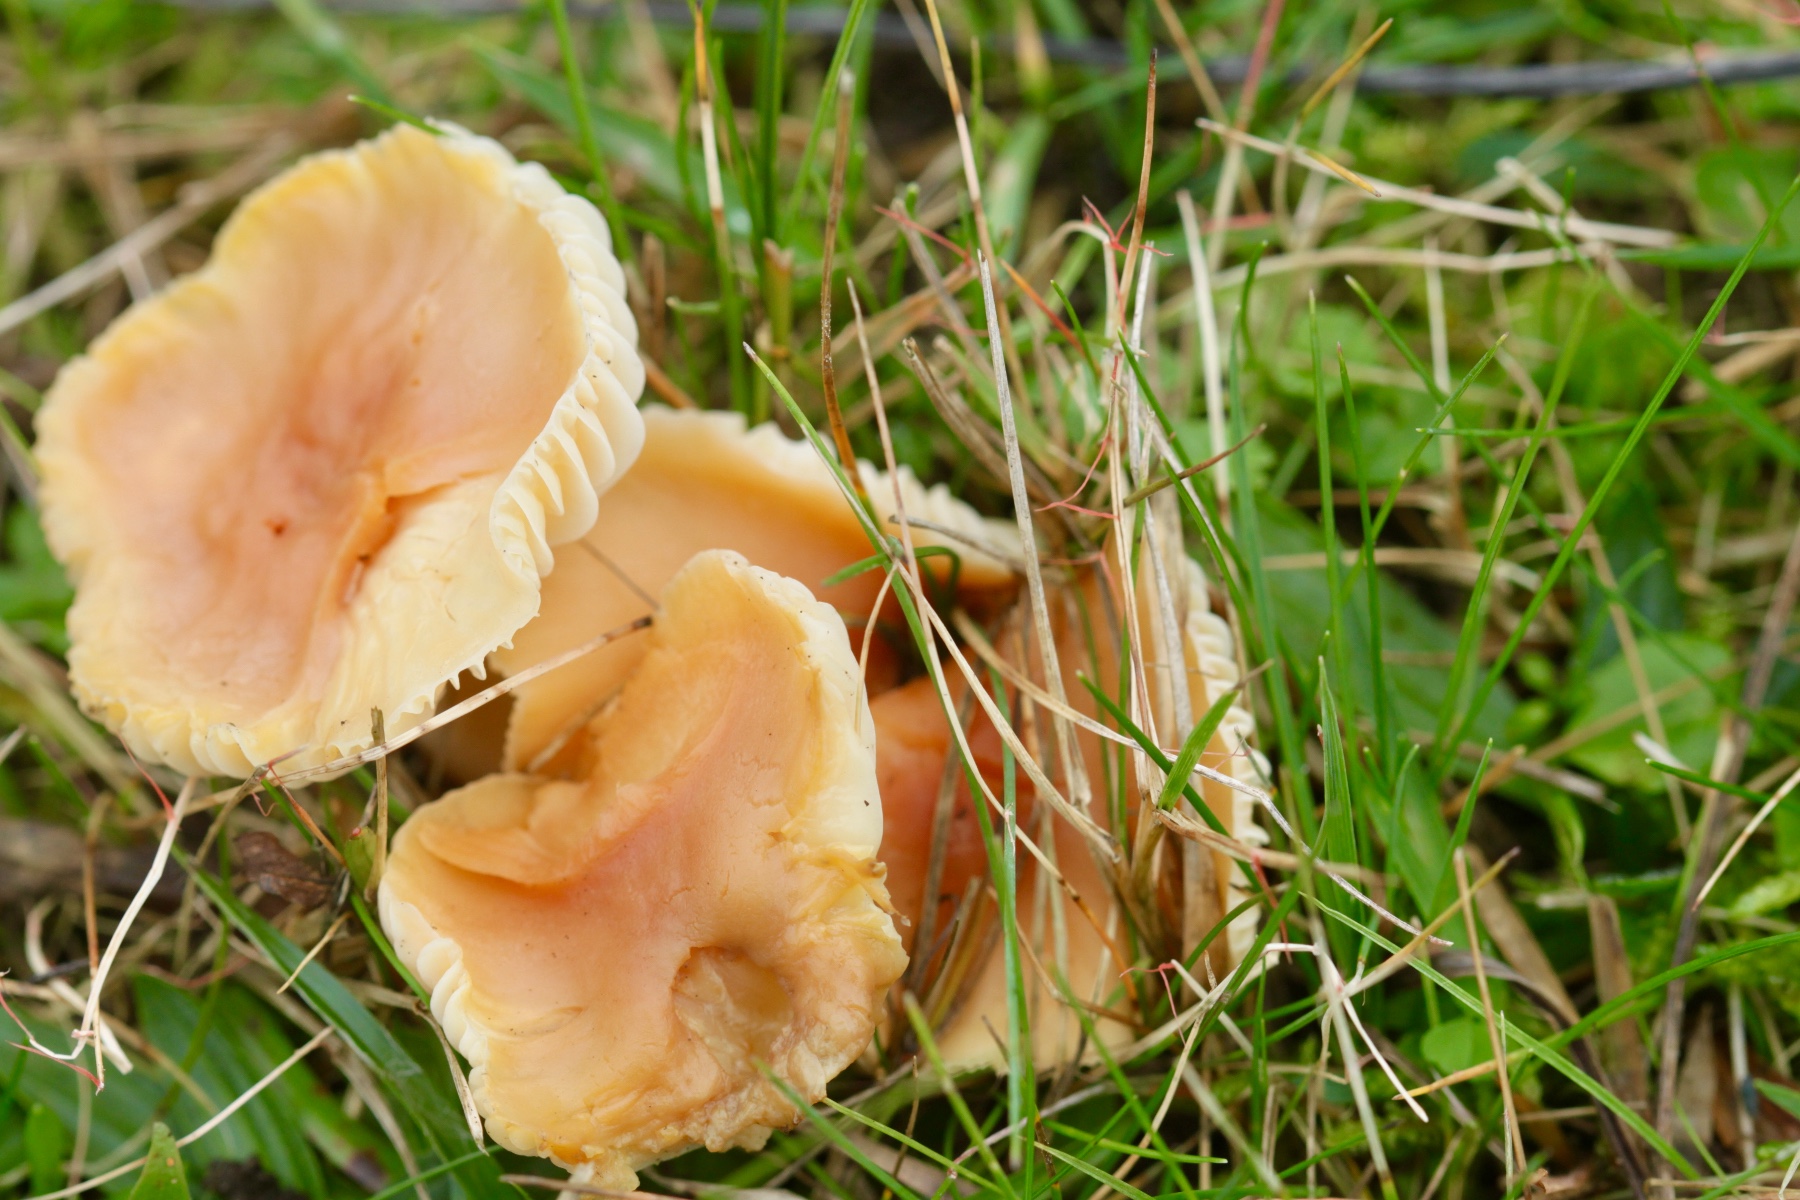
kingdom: Fungi
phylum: Basidiomycota
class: Agaricomycetes
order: Agaricales
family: Hygrophoraceae
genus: Cuphophyllus
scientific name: Cuphophyllus pratensis
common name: eng-vokshat
